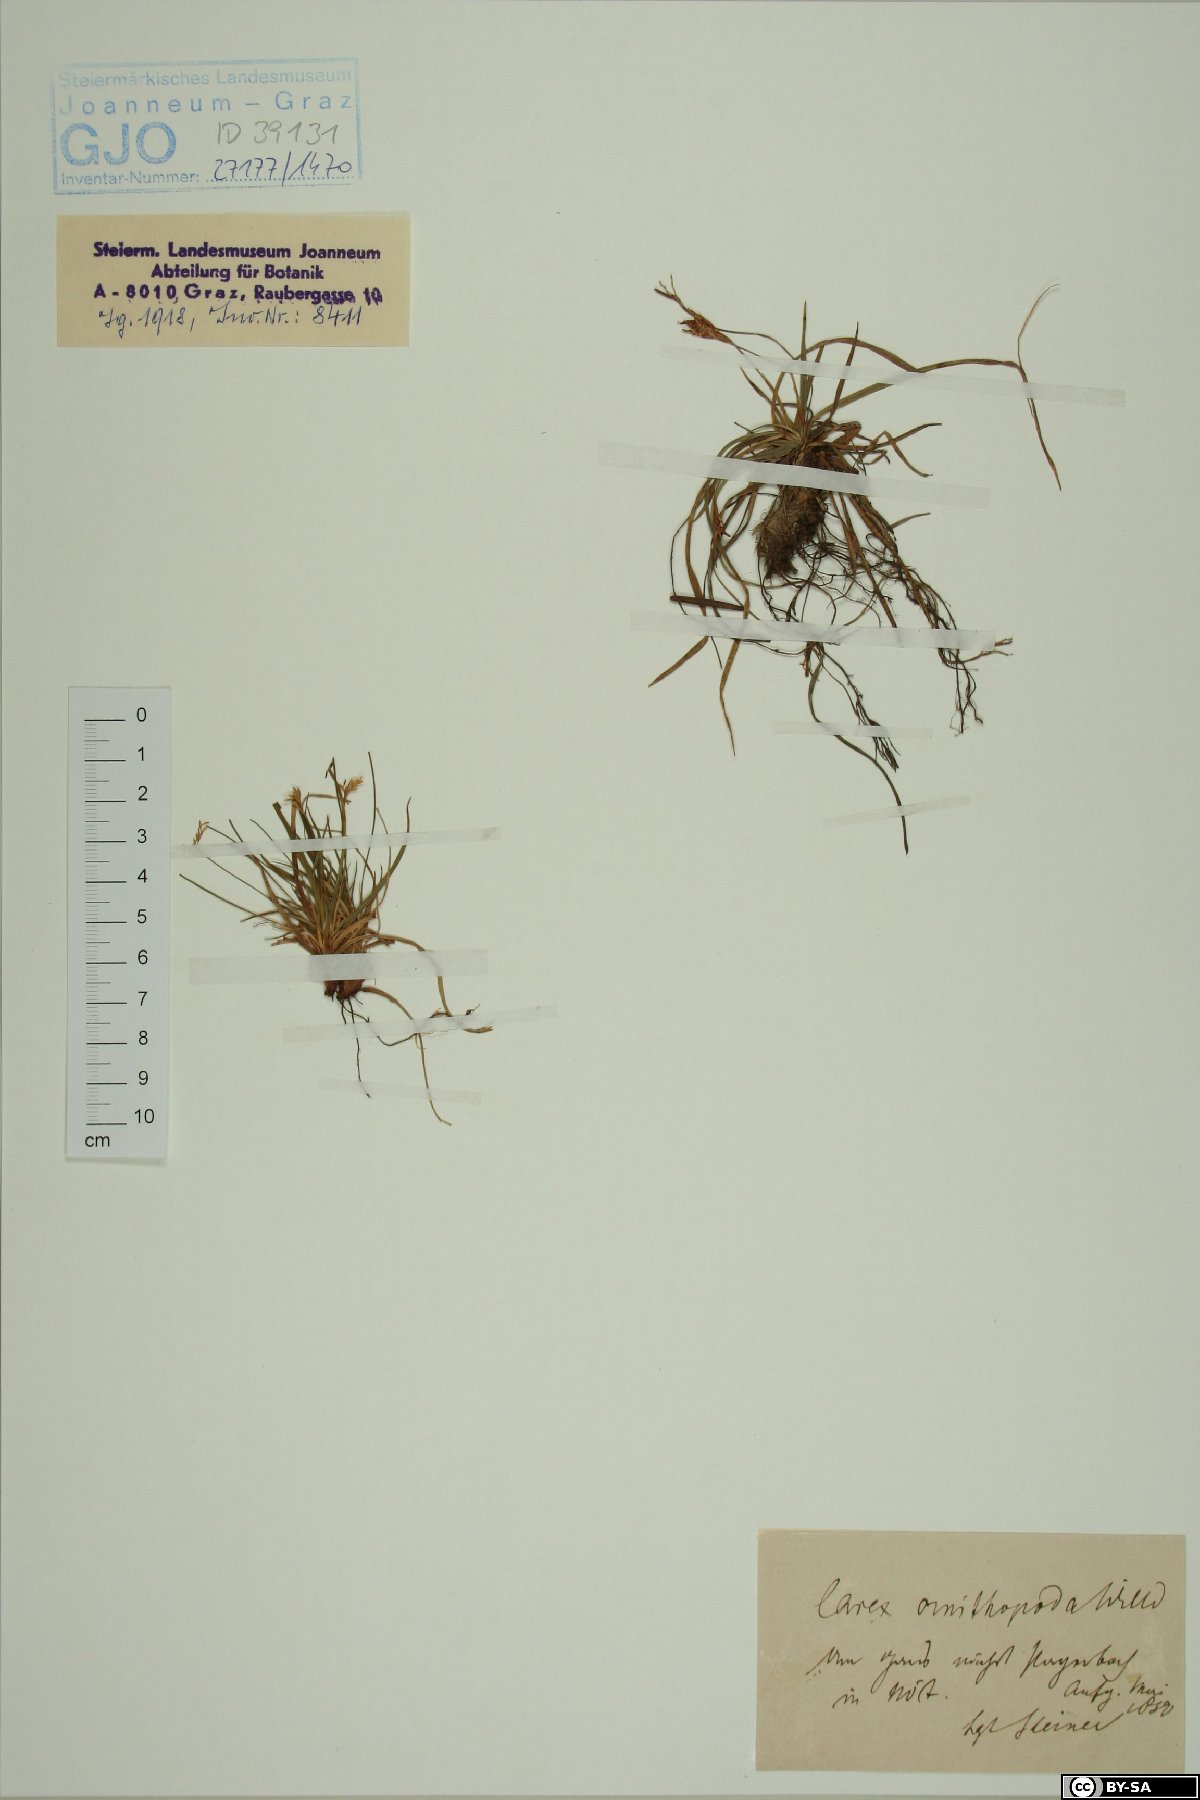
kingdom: Plantae
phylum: Tracheophyta
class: Liliopsida
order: Poales
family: Cyperaceae
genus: Carex
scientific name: Carex ornithopoda
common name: Bird's-foot sedge
